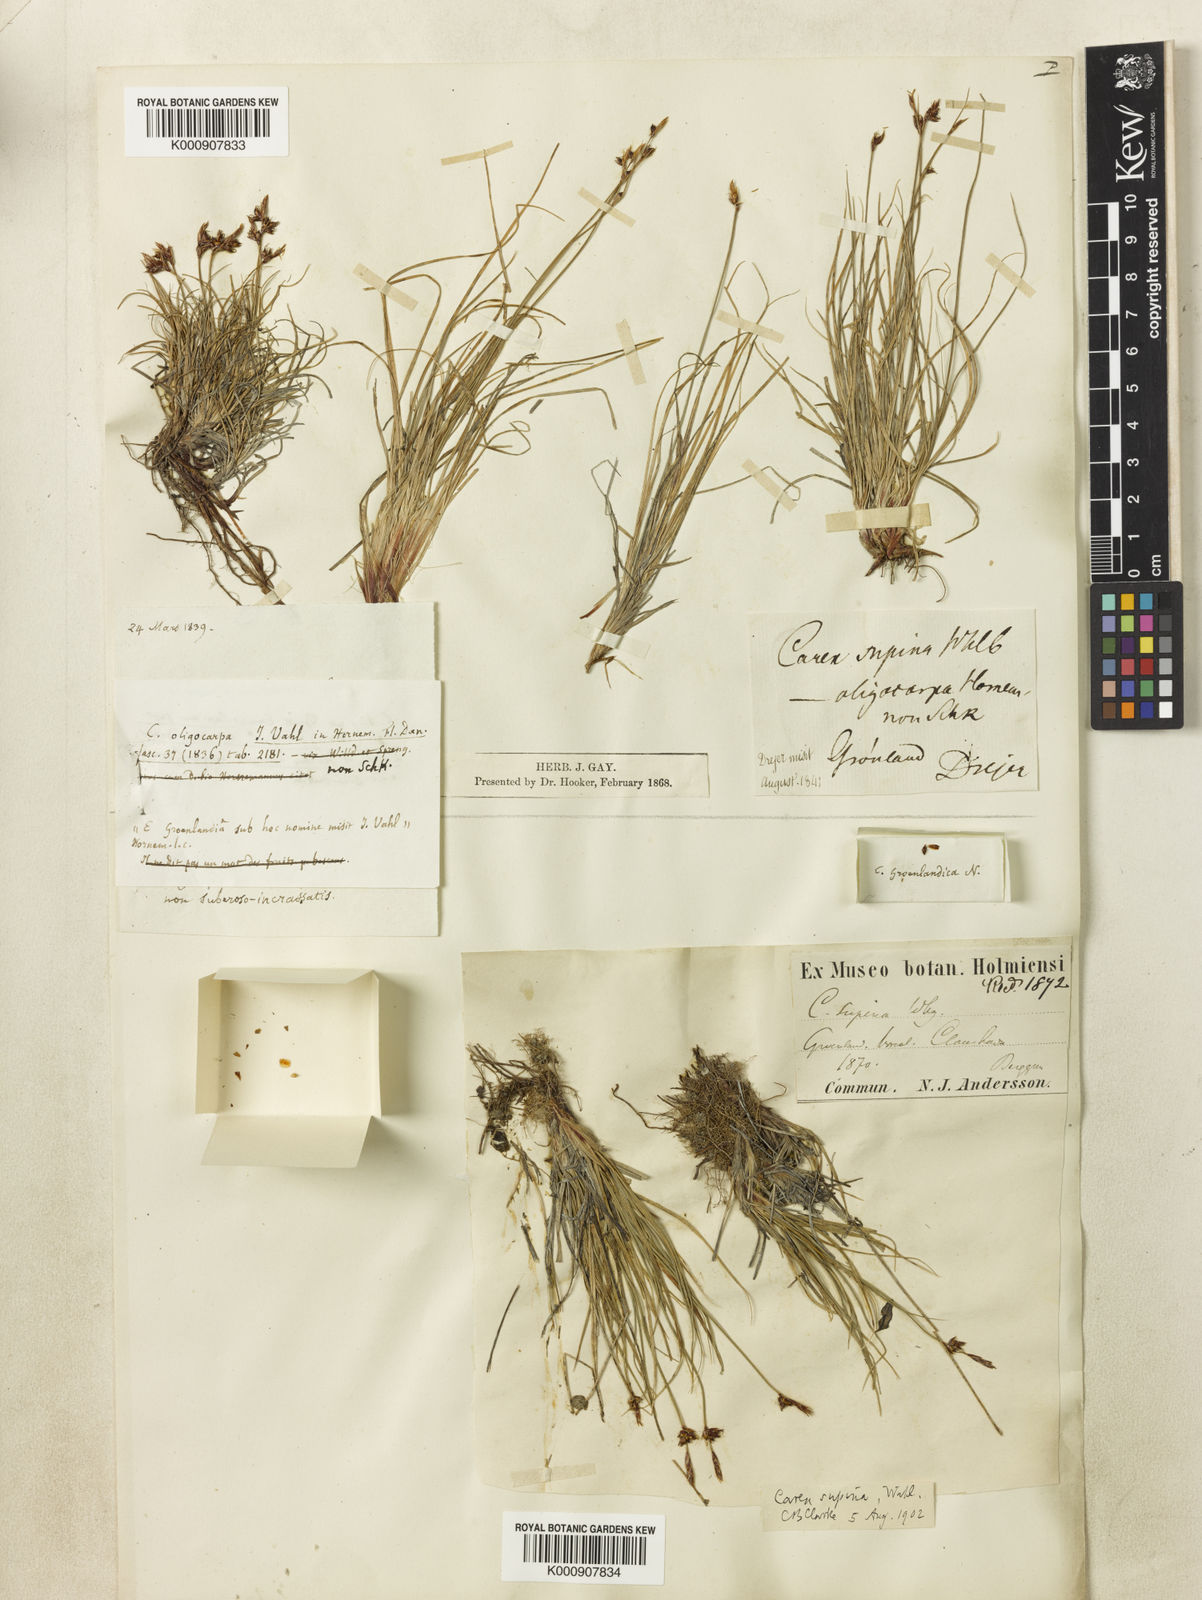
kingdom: Plantae
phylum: Tracheophyta
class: Liliopsida
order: Poales
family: Cyperaceae
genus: Carex
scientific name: Carex supina
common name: Lying-back sedge
